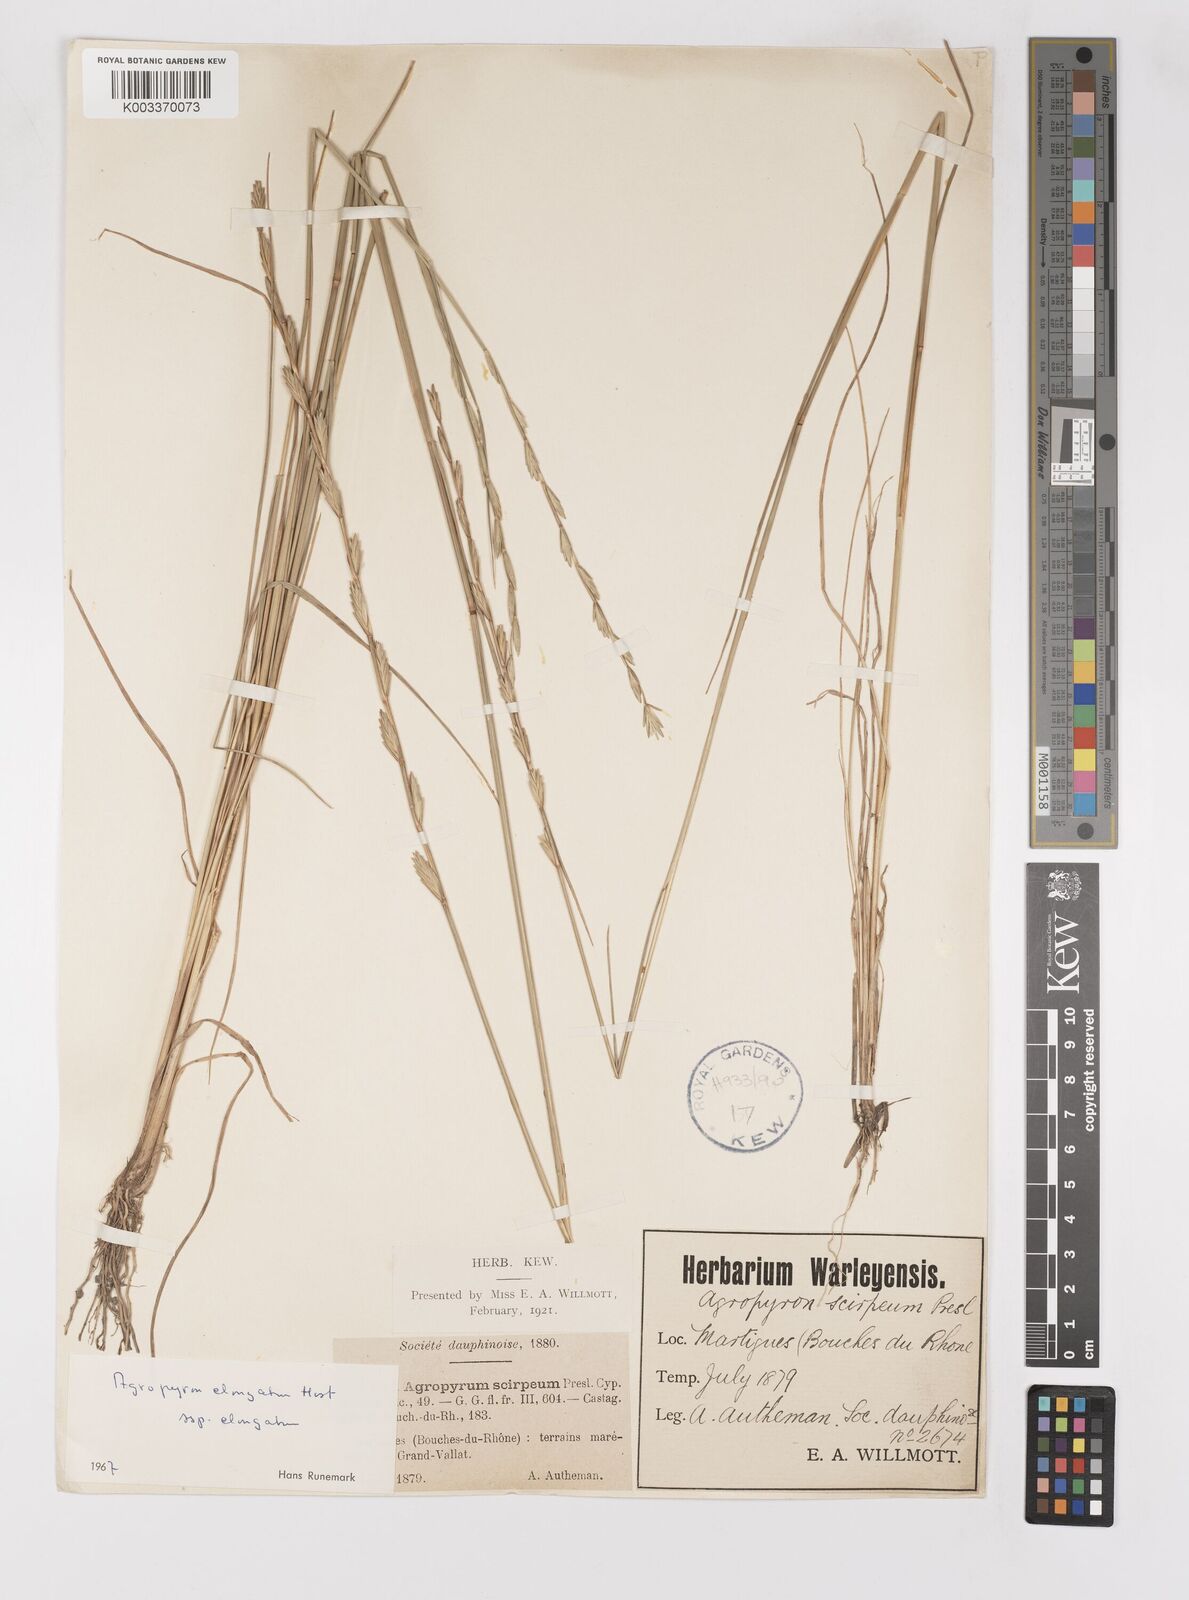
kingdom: Plantae
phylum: Tracheophyta
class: Liliopsida
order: Poales
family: Poaceae
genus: Thinopyrum
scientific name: Thinopyrum elongatum
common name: Tall wheatgrass
